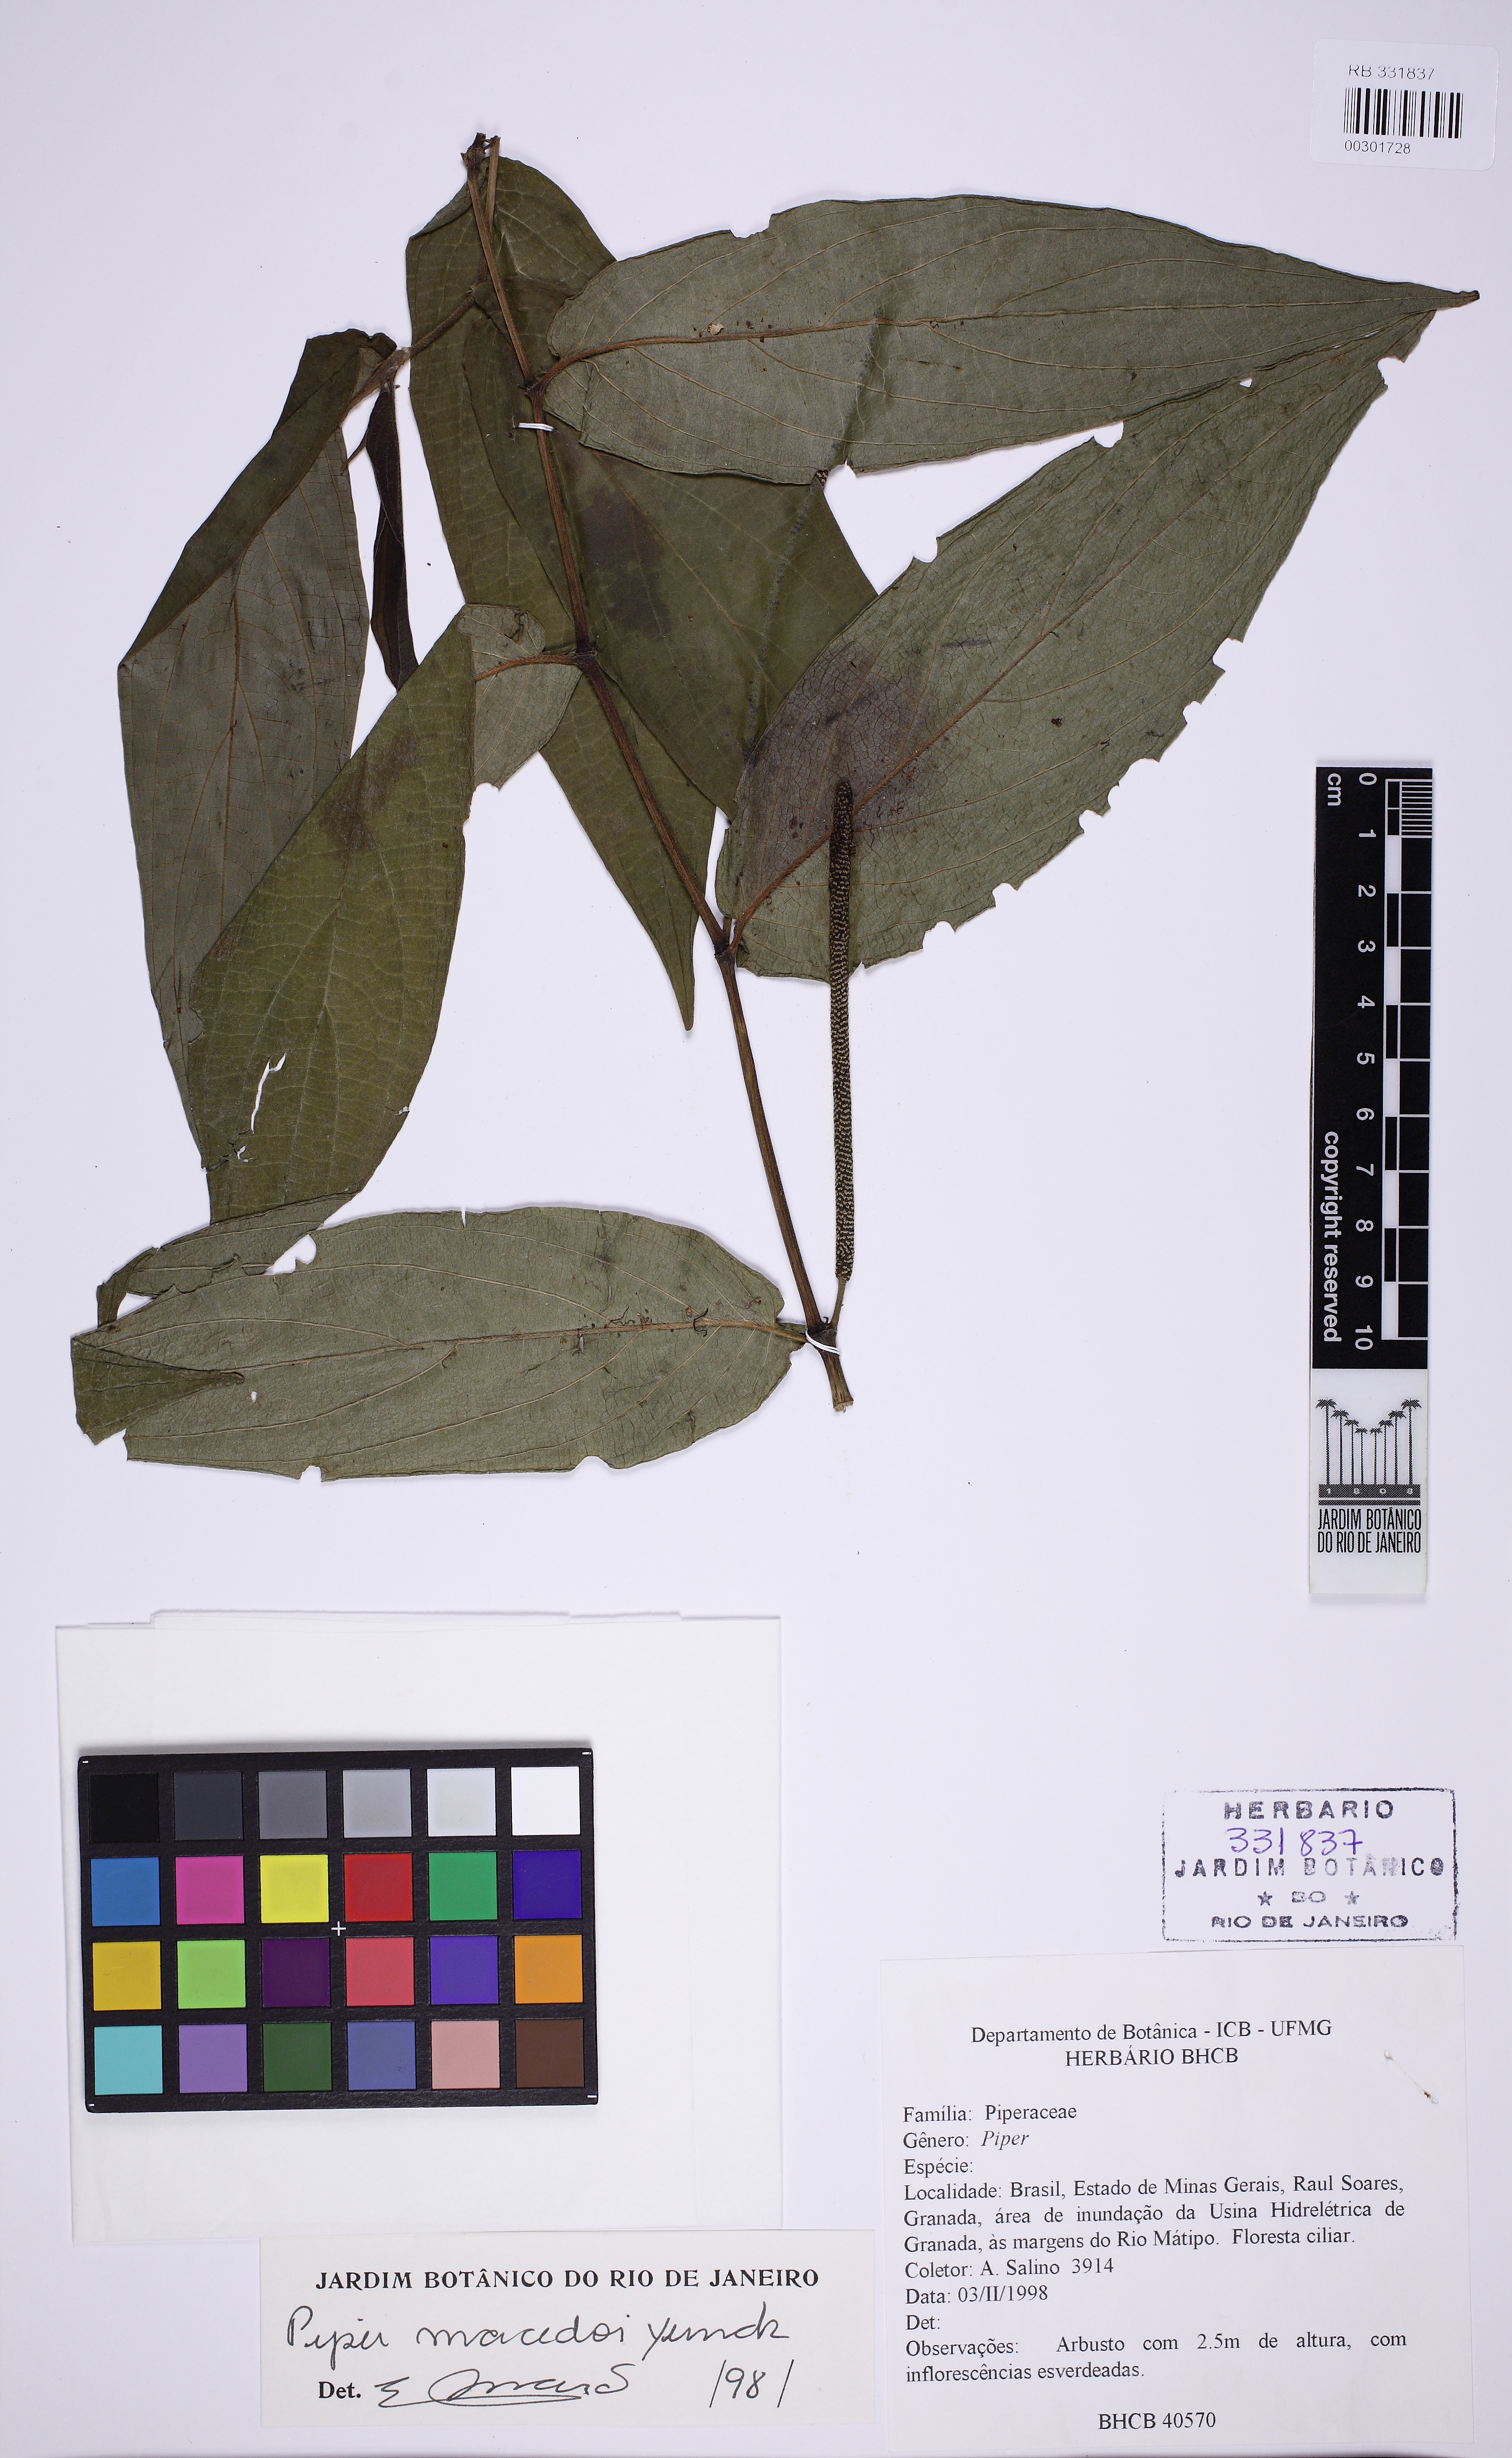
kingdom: Plantae
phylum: Tracheophyta
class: Magnoliopsida
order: Piperales
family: Piperaceae
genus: Piper
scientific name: Piper macedoi
